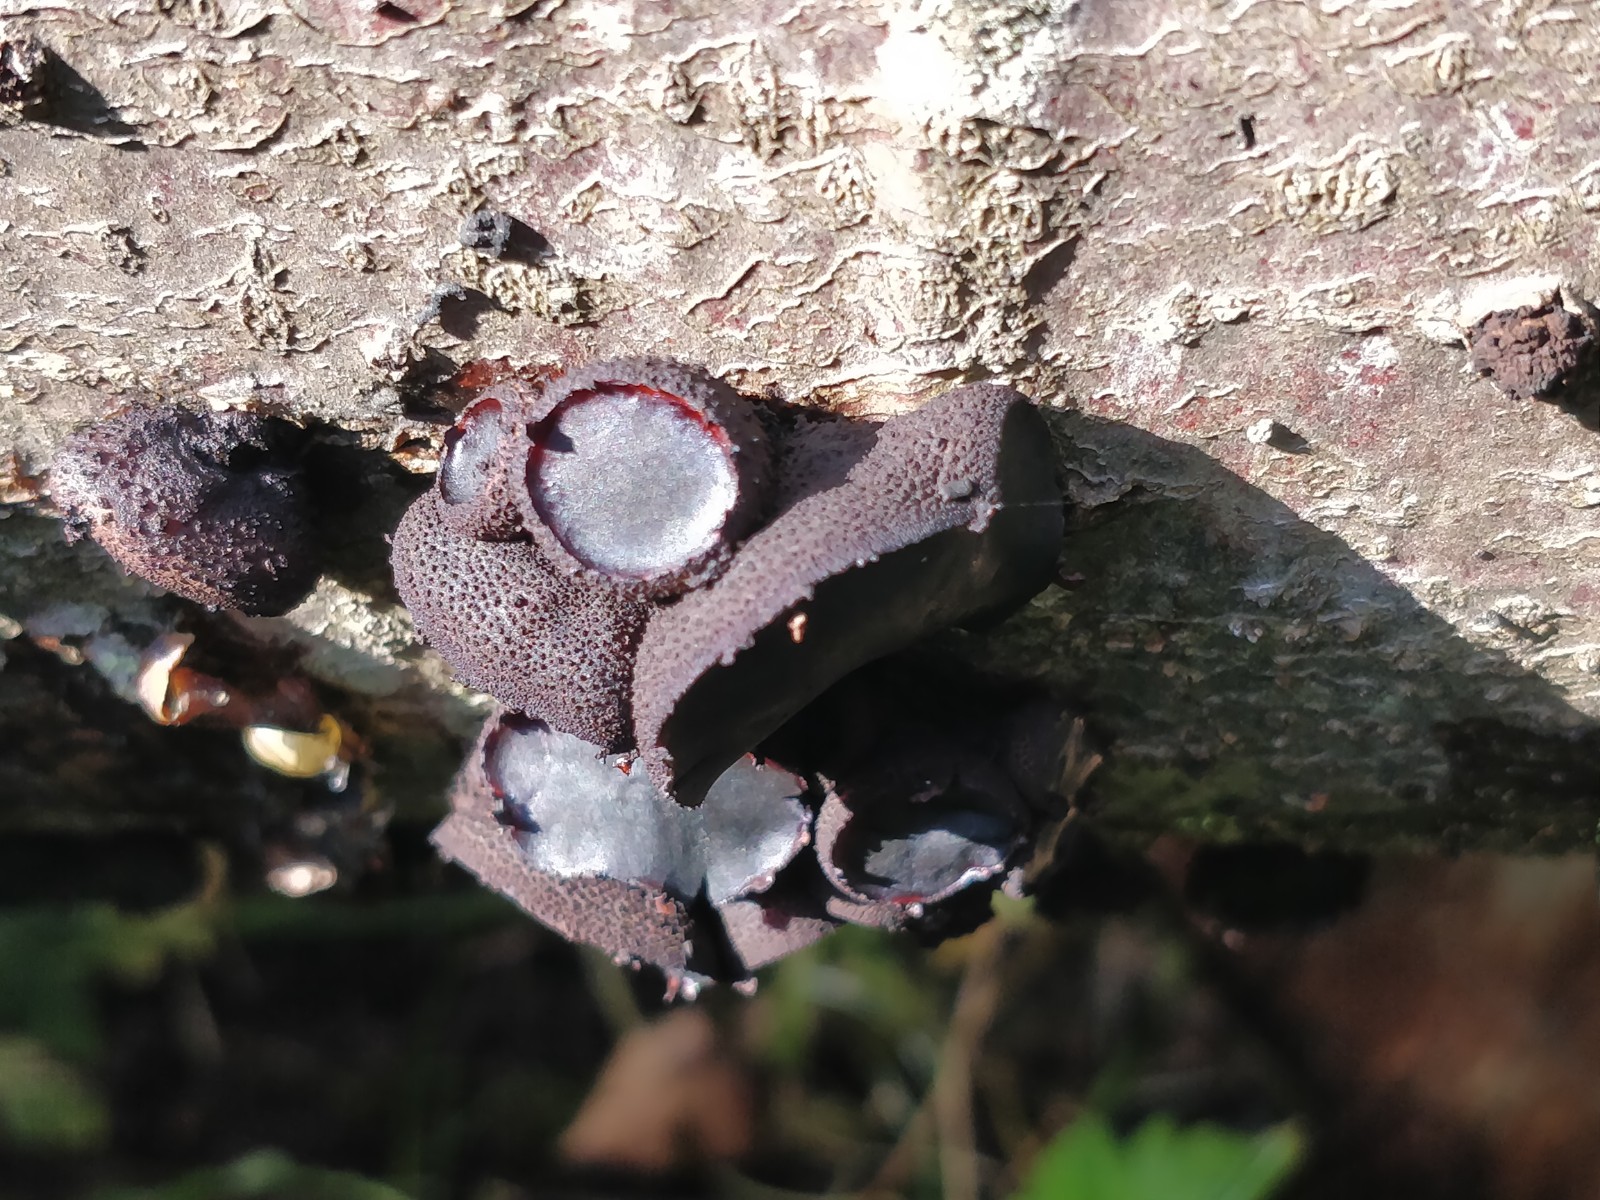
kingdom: Fungi
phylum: Ascomycota
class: Leotiomycetes
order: Phacidiales
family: Phacidiaceae
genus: Bulgaria
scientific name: Bulgaria inquinans
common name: afsmittende topsvamp
